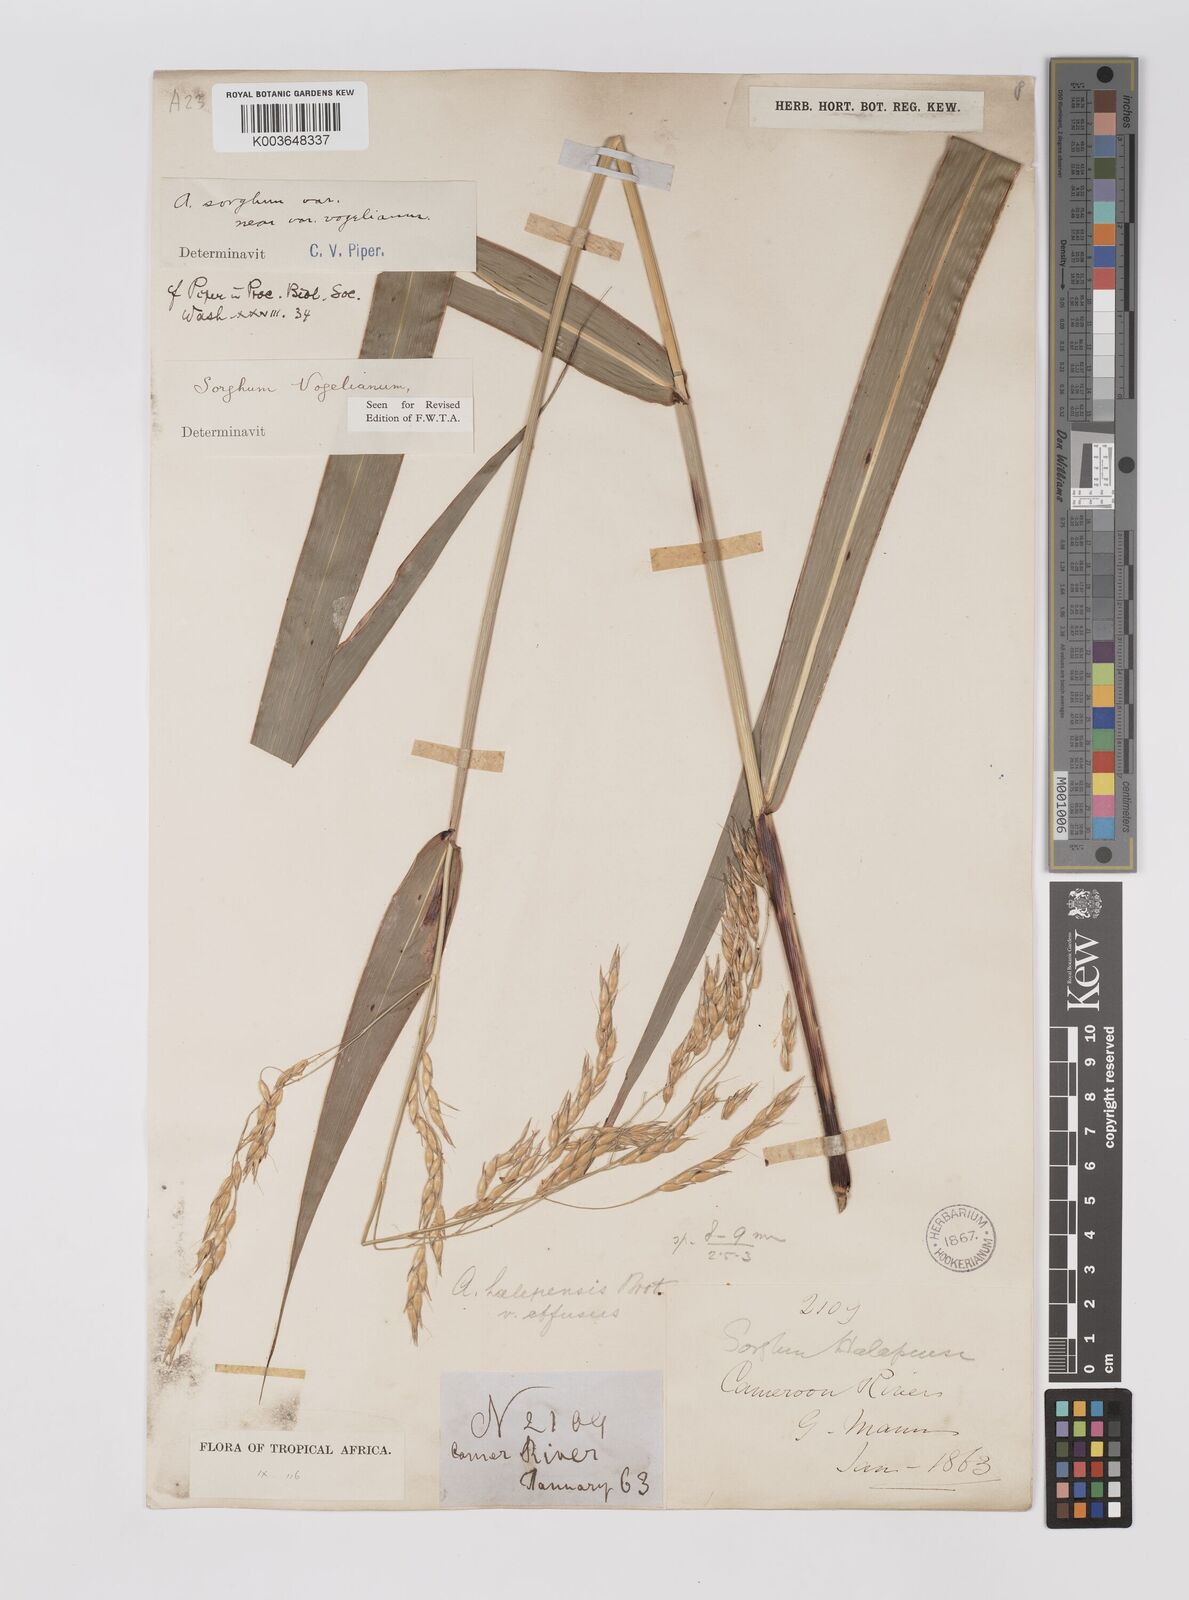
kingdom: Plantae
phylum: Tracheophyta
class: Liliopsida
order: Poales
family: Poaceae
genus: Sorghum
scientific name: Sorghum arundinaceum
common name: Sorghum
